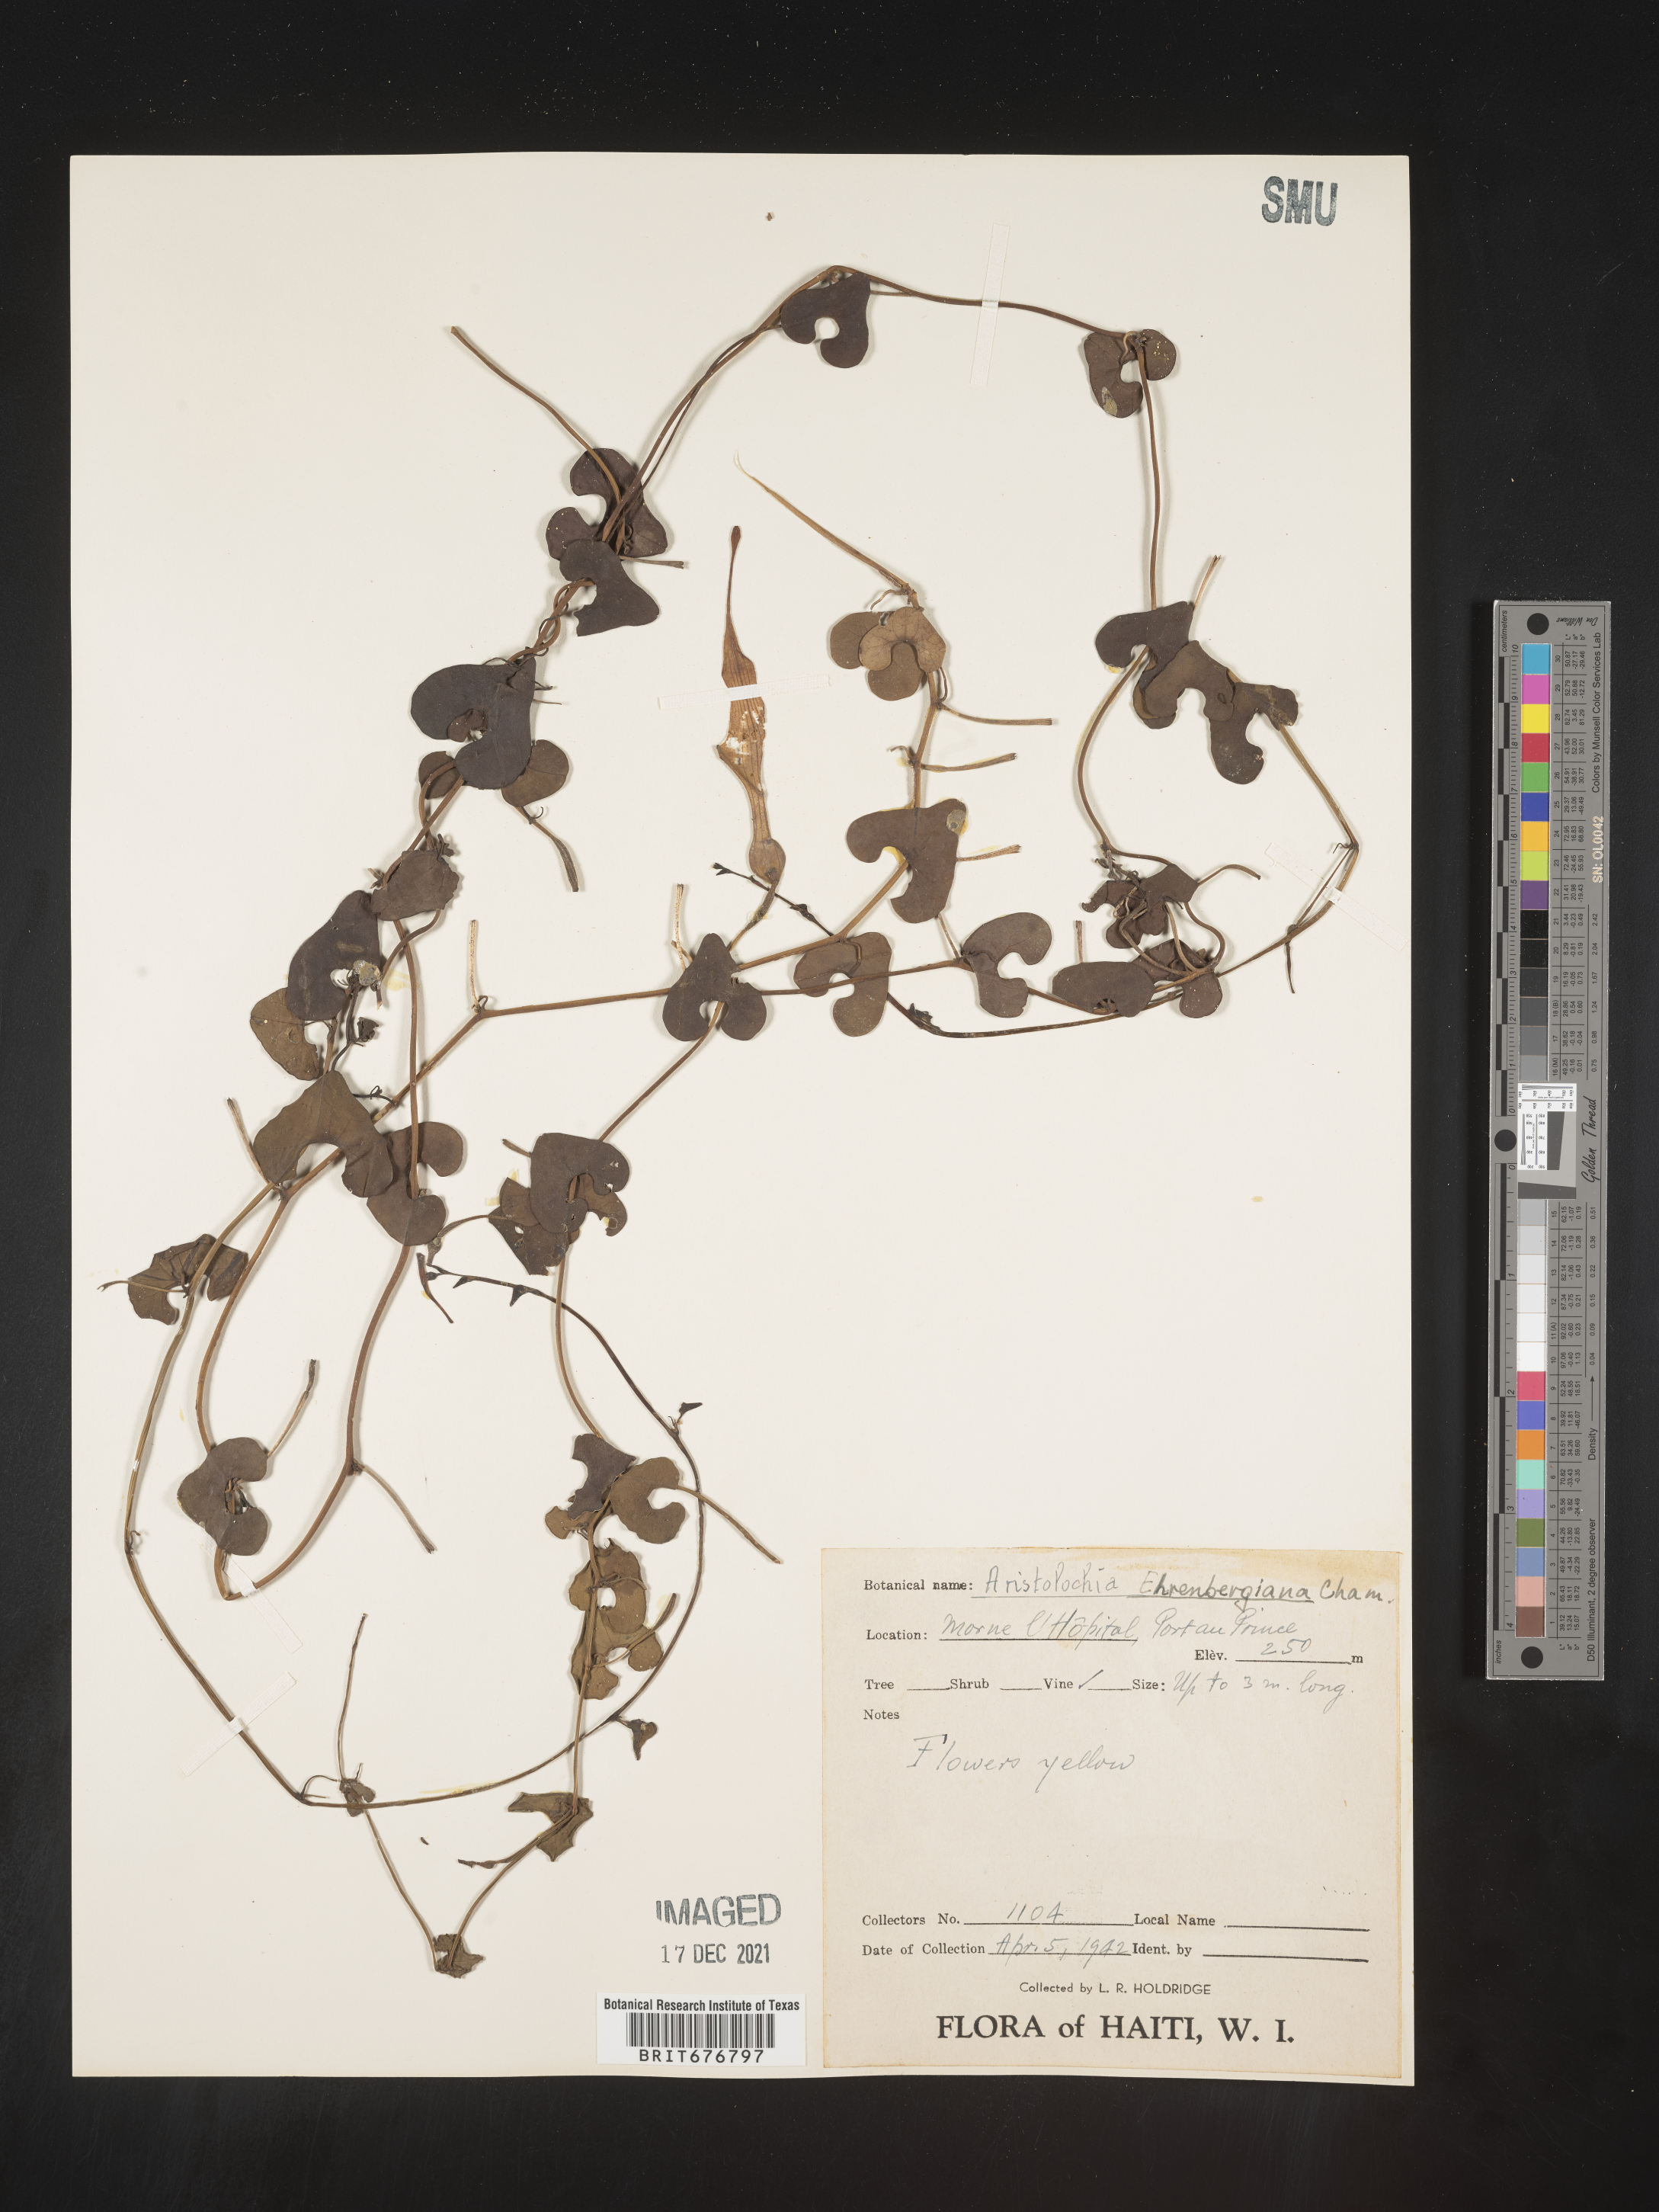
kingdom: Plantae
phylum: Tracheophyta
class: Magnoliopsida
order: Piperales
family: Aristolochiaceae
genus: Aristolochia
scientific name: Aristolochia
